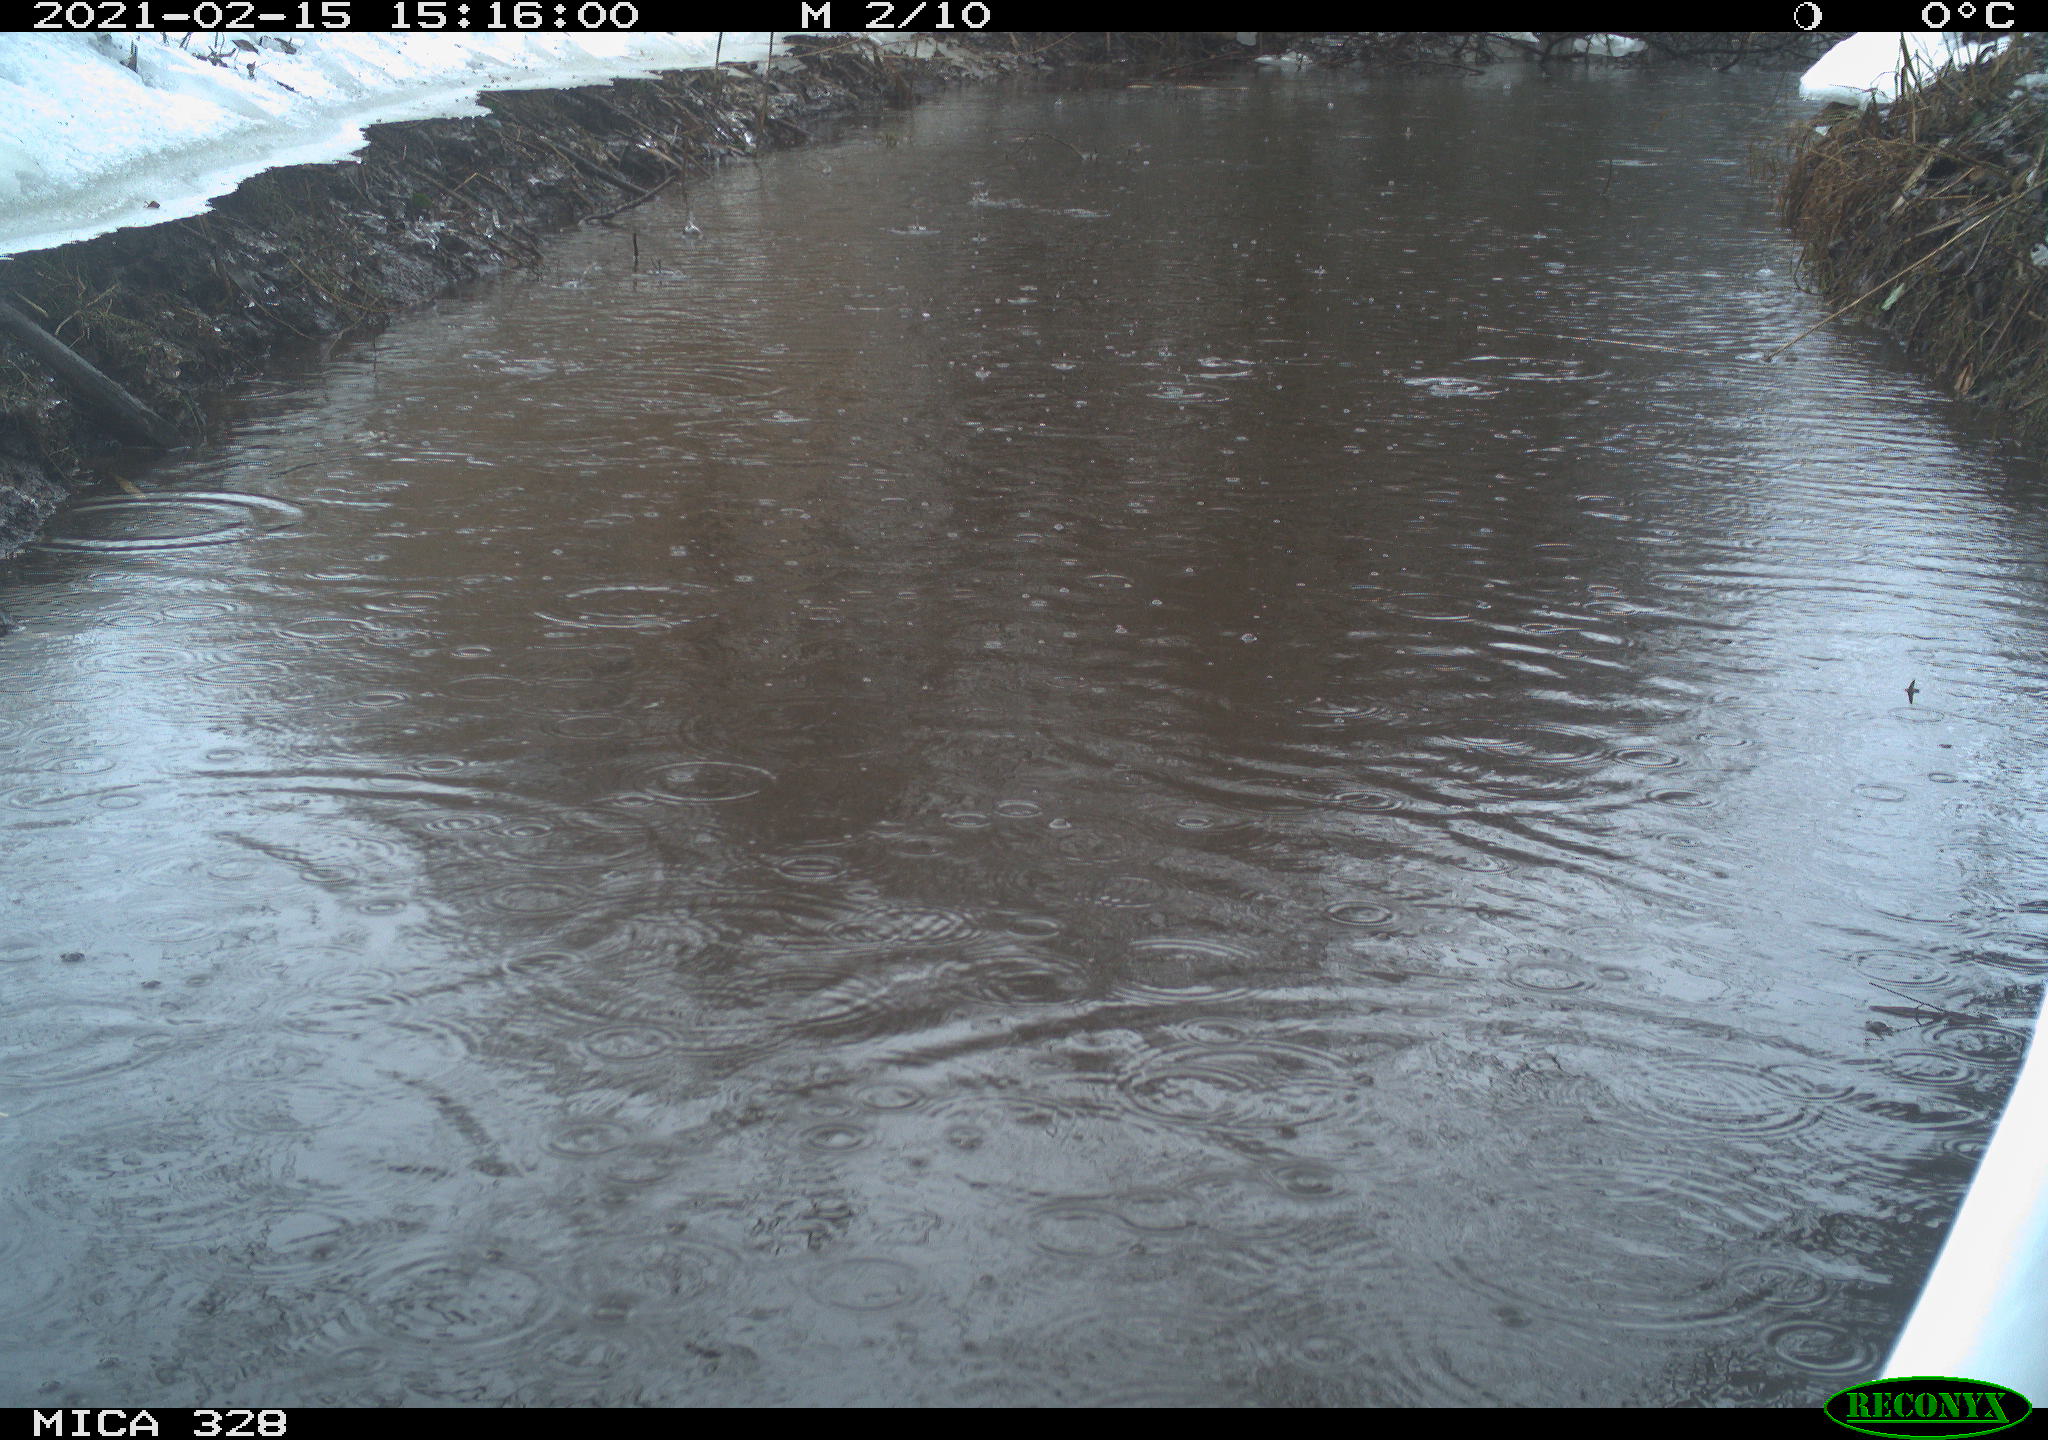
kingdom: Animalia
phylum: Chordata
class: Aves
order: Pelecaniformes
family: Ardeidae
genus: Ardea
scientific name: Ardea alba
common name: Great egret
